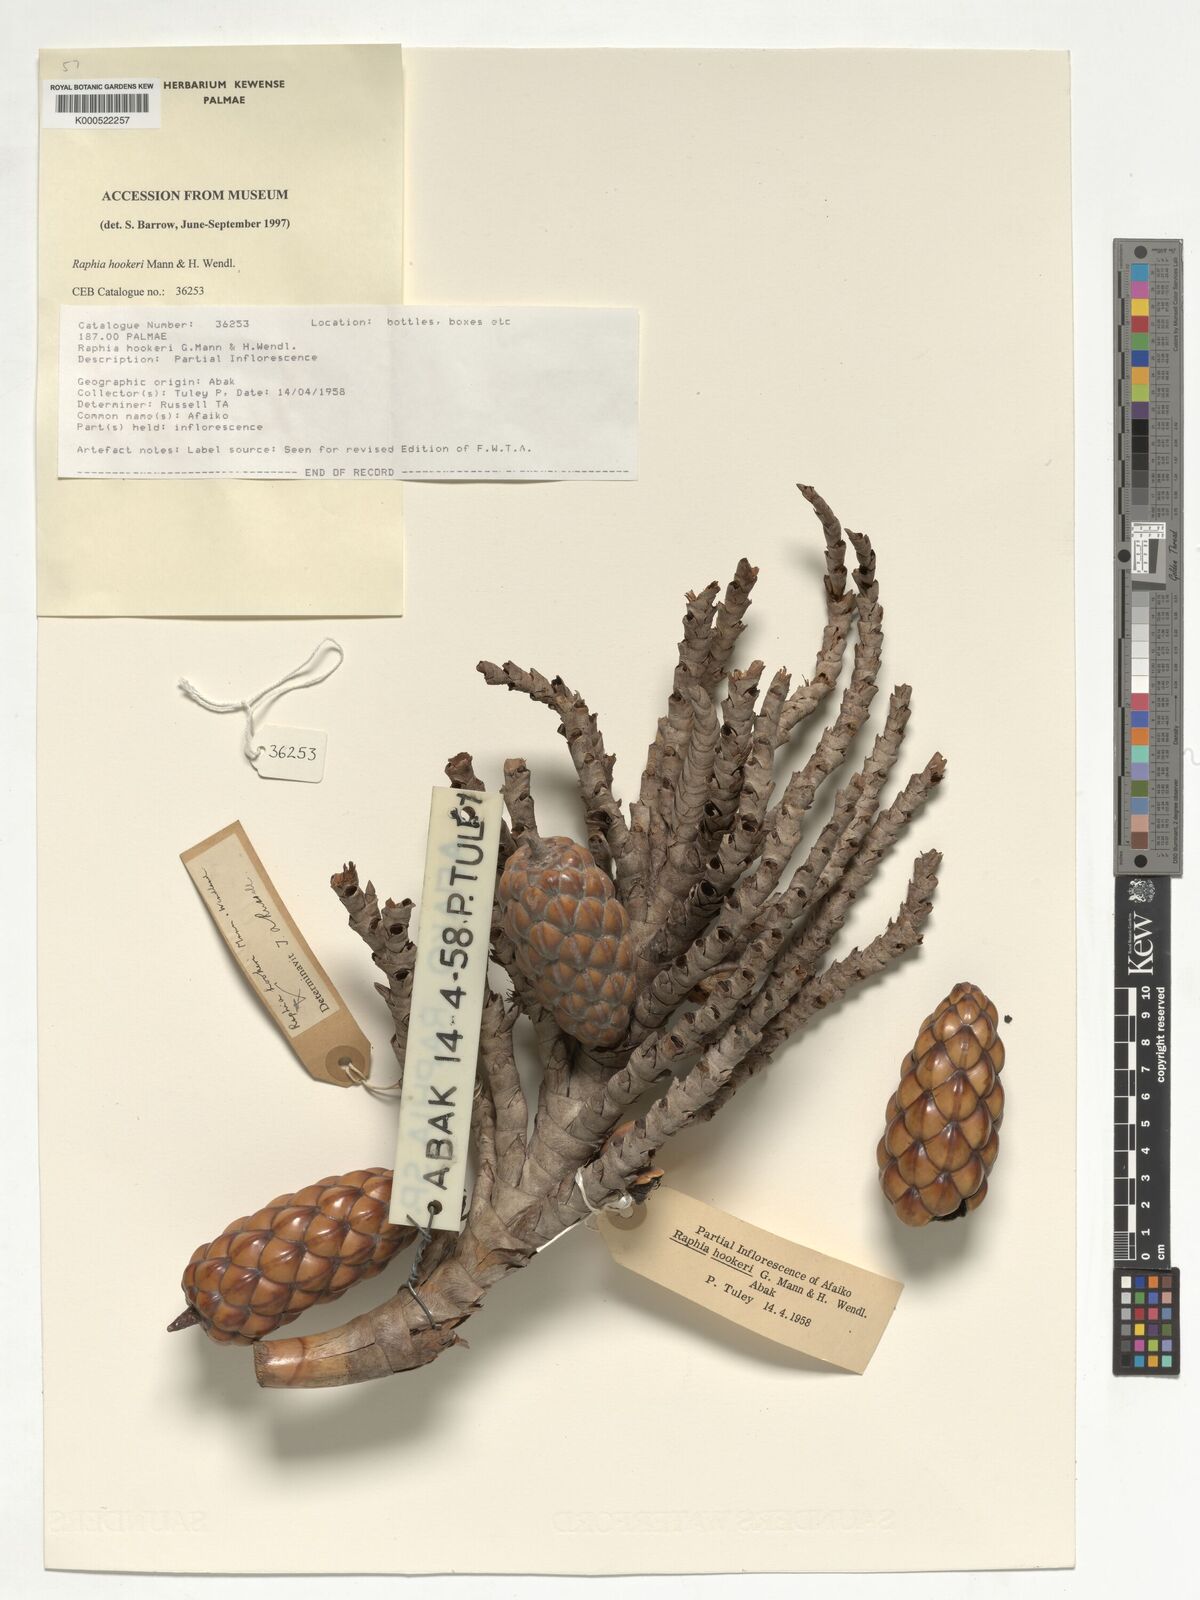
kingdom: Plantae
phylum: Tracheophyta
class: Liliopsida
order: Arecales
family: Arecaceae
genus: Raphia
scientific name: Raphia hookeri
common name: Wine palm
